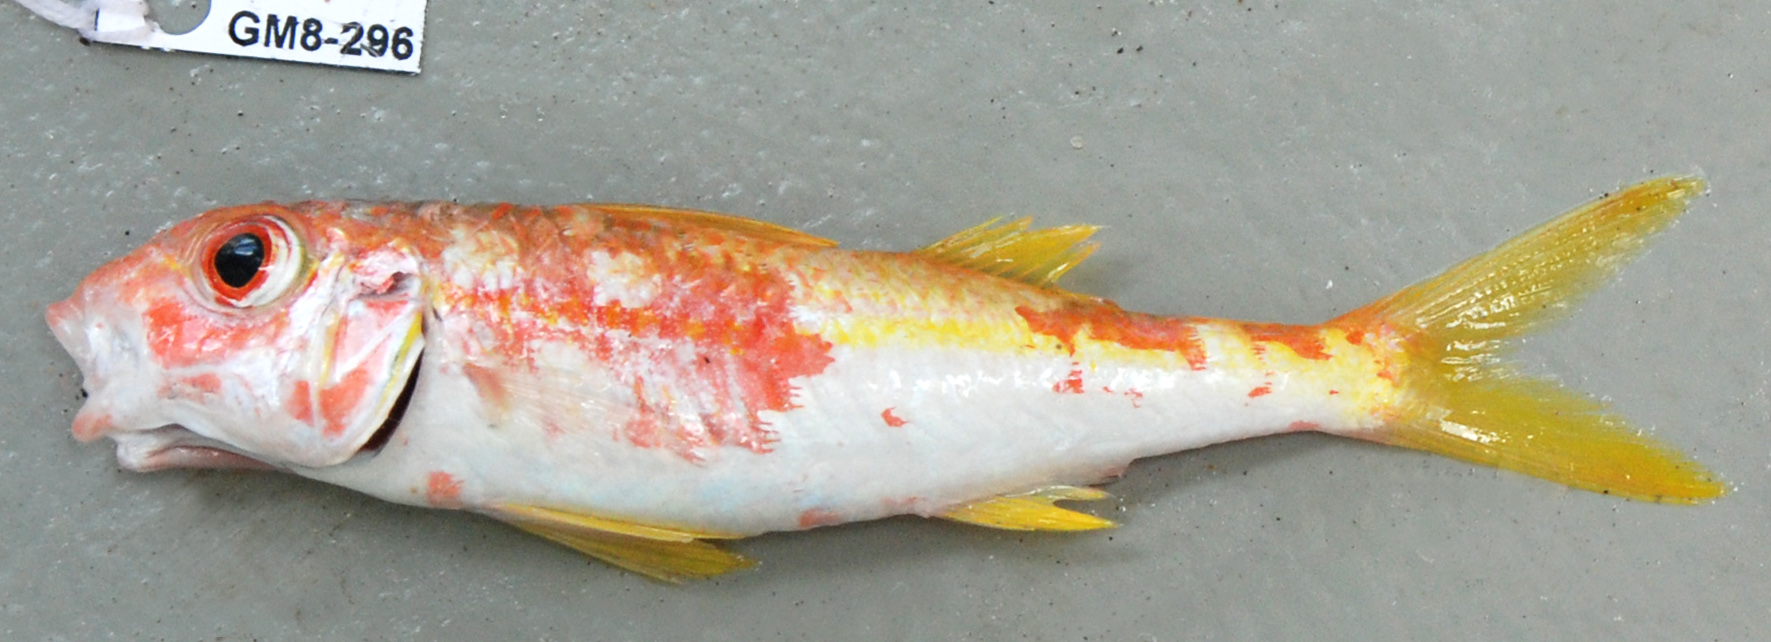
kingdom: Animalia
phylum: Chordata
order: Perciformes
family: Mullidae
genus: Mulloidichthys
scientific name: Mulloidichthys vanicolensis
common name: Yellowfin goatfish
